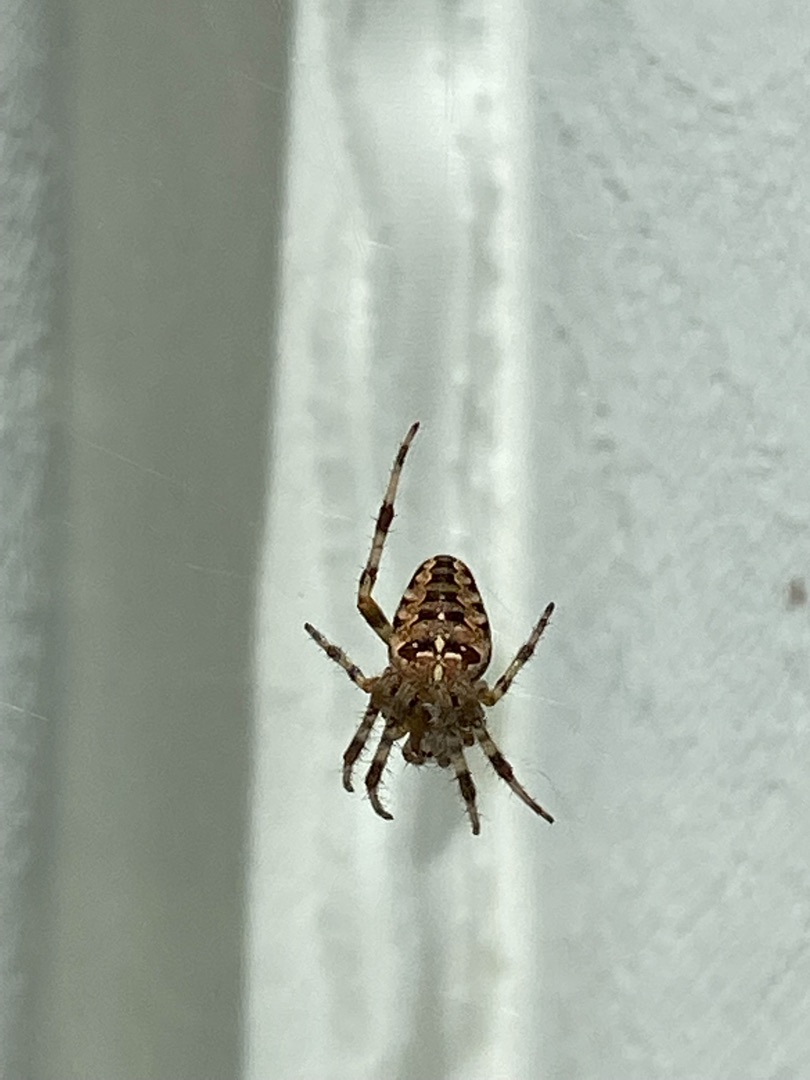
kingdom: Animalia
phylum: Arthropoda
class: Arachnida
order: Araneae
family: Araneidae
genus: Araneus
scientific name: Araneus diadematus
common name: Korsedderkop
